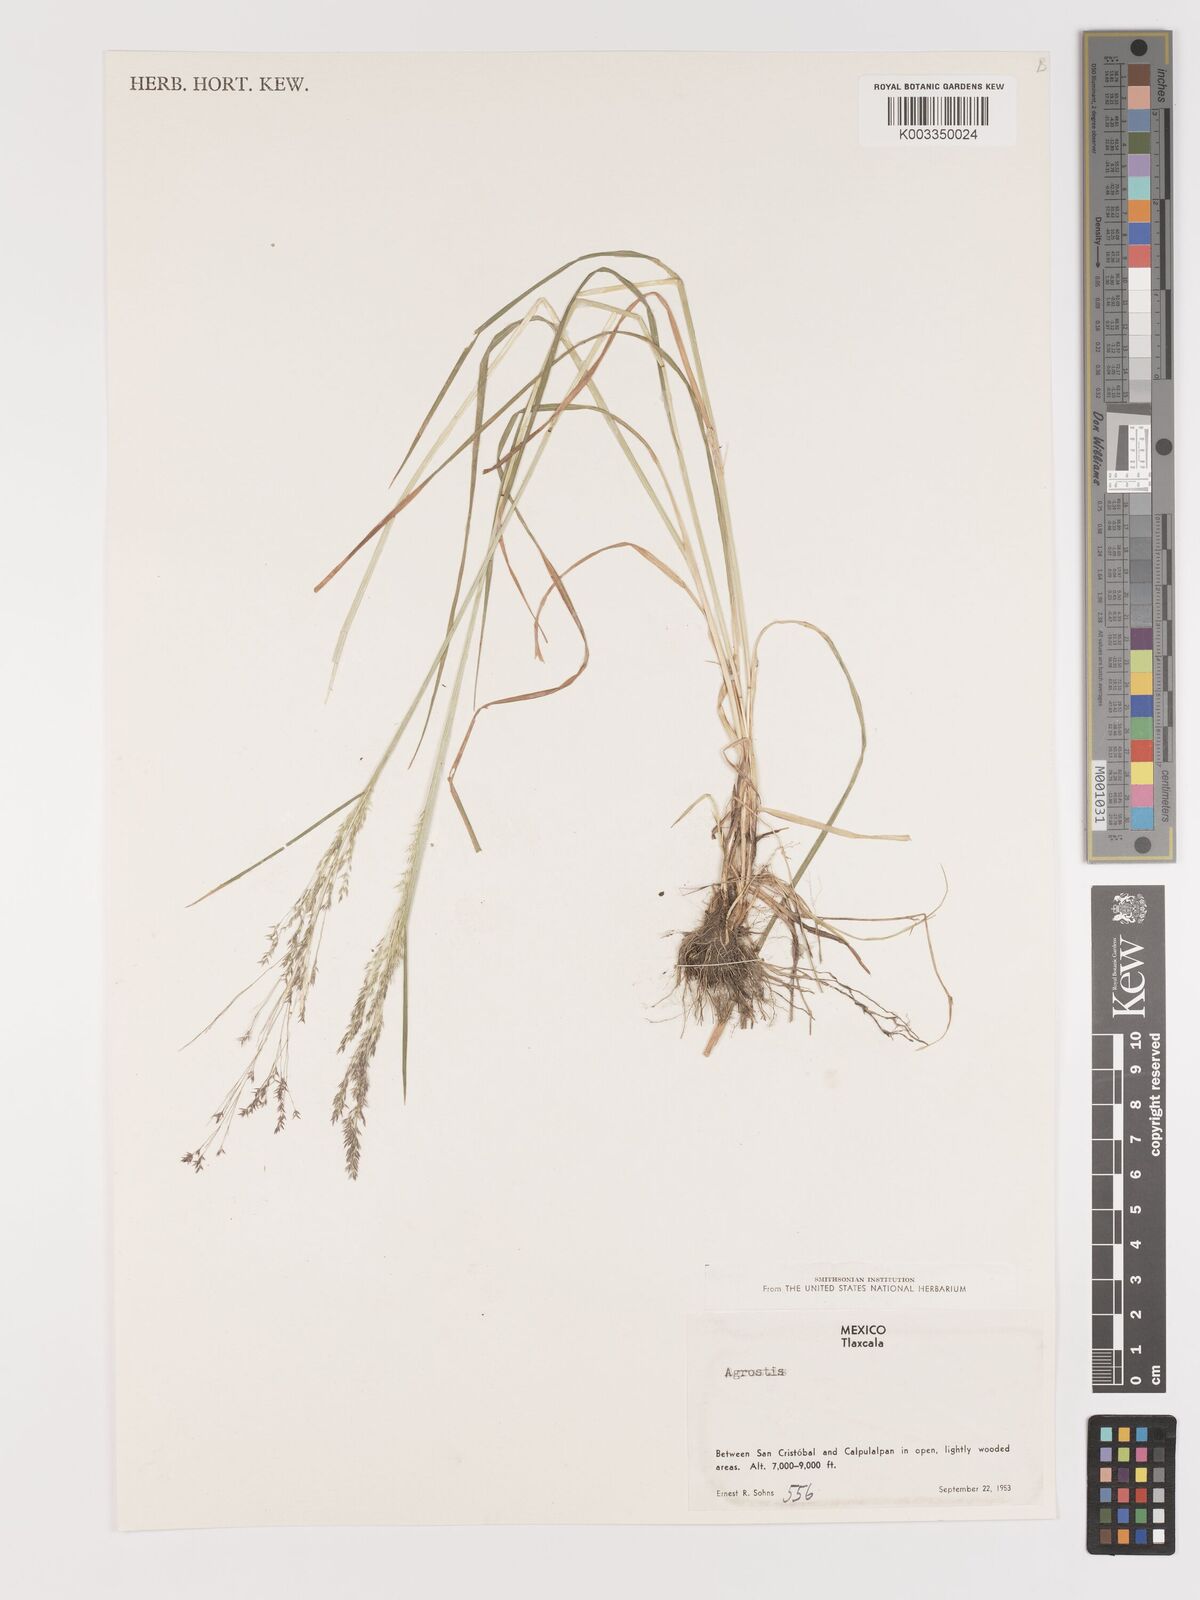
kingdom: Plantae
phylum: Tracheophyta
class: Liliopsida
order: Poales
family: Poaceae
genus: Agrostis
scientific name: Agrostis
